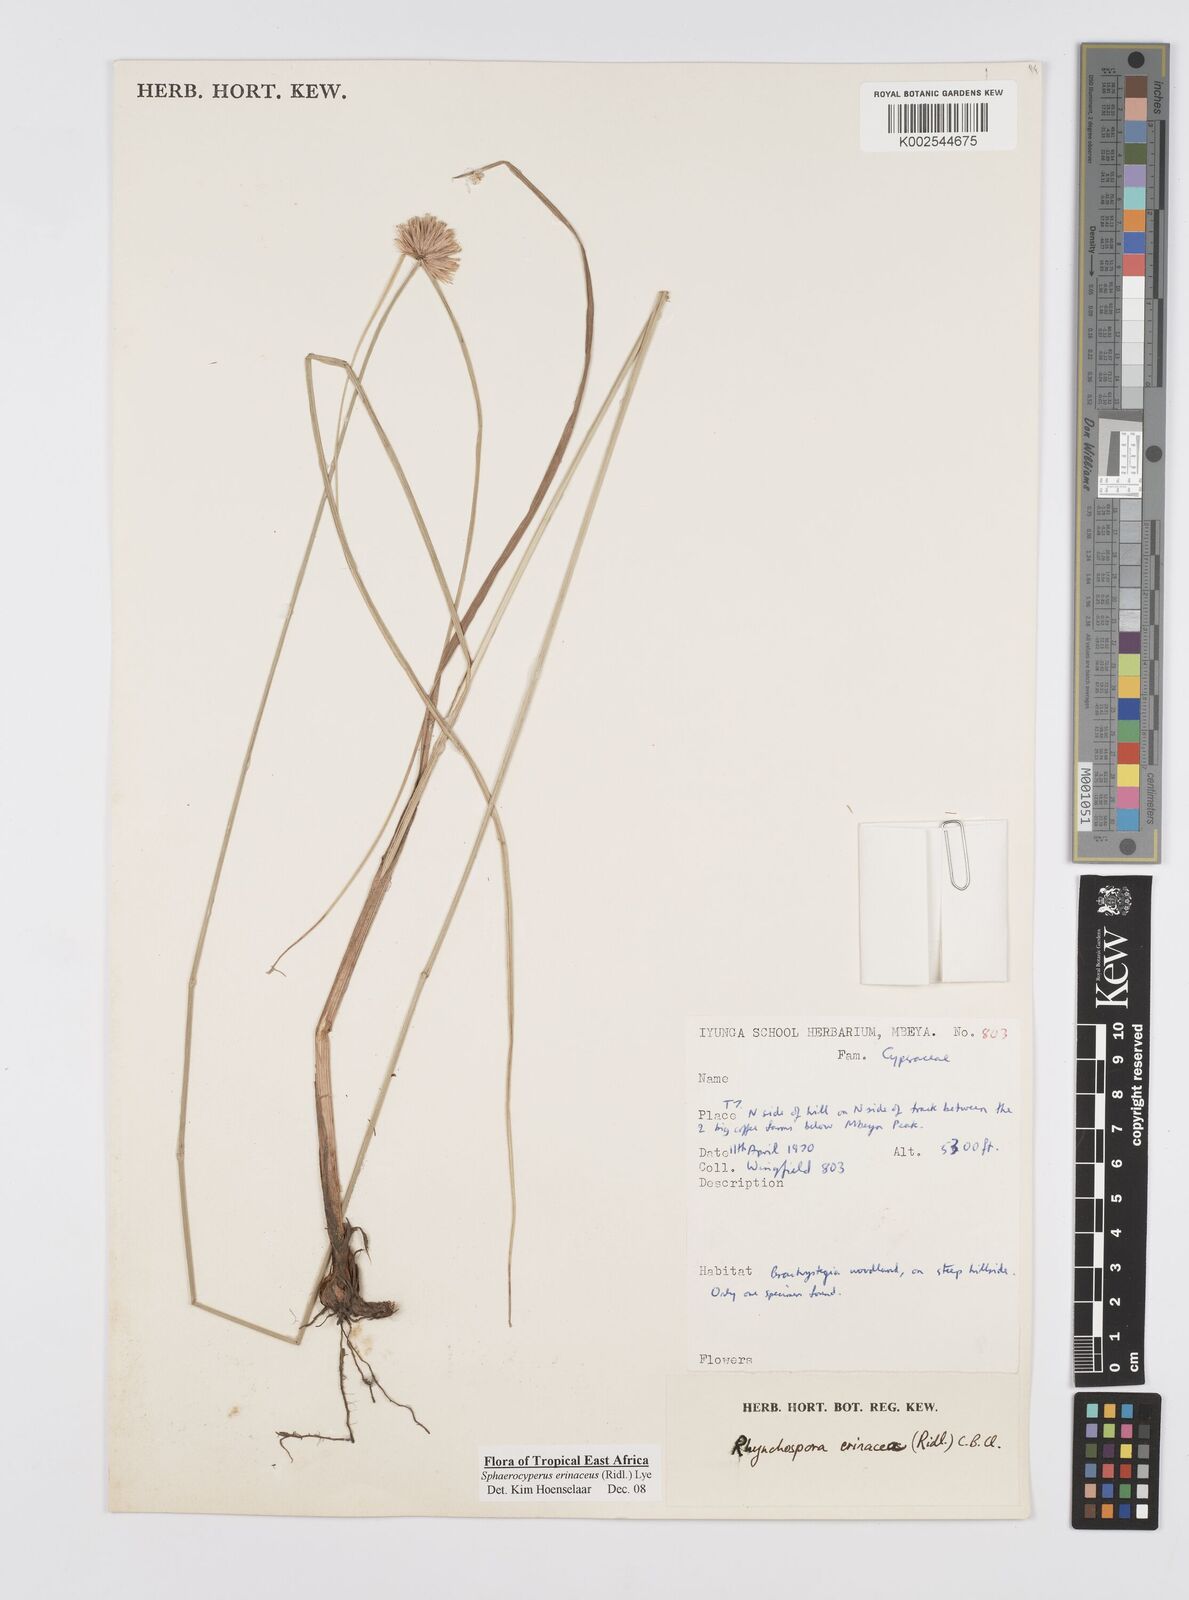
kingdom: Plantae
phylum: Tracheophyta
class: Liliopsida
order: Poales
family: Cyperaceae
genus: Cyperus
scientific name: Cyperus erinaceus
